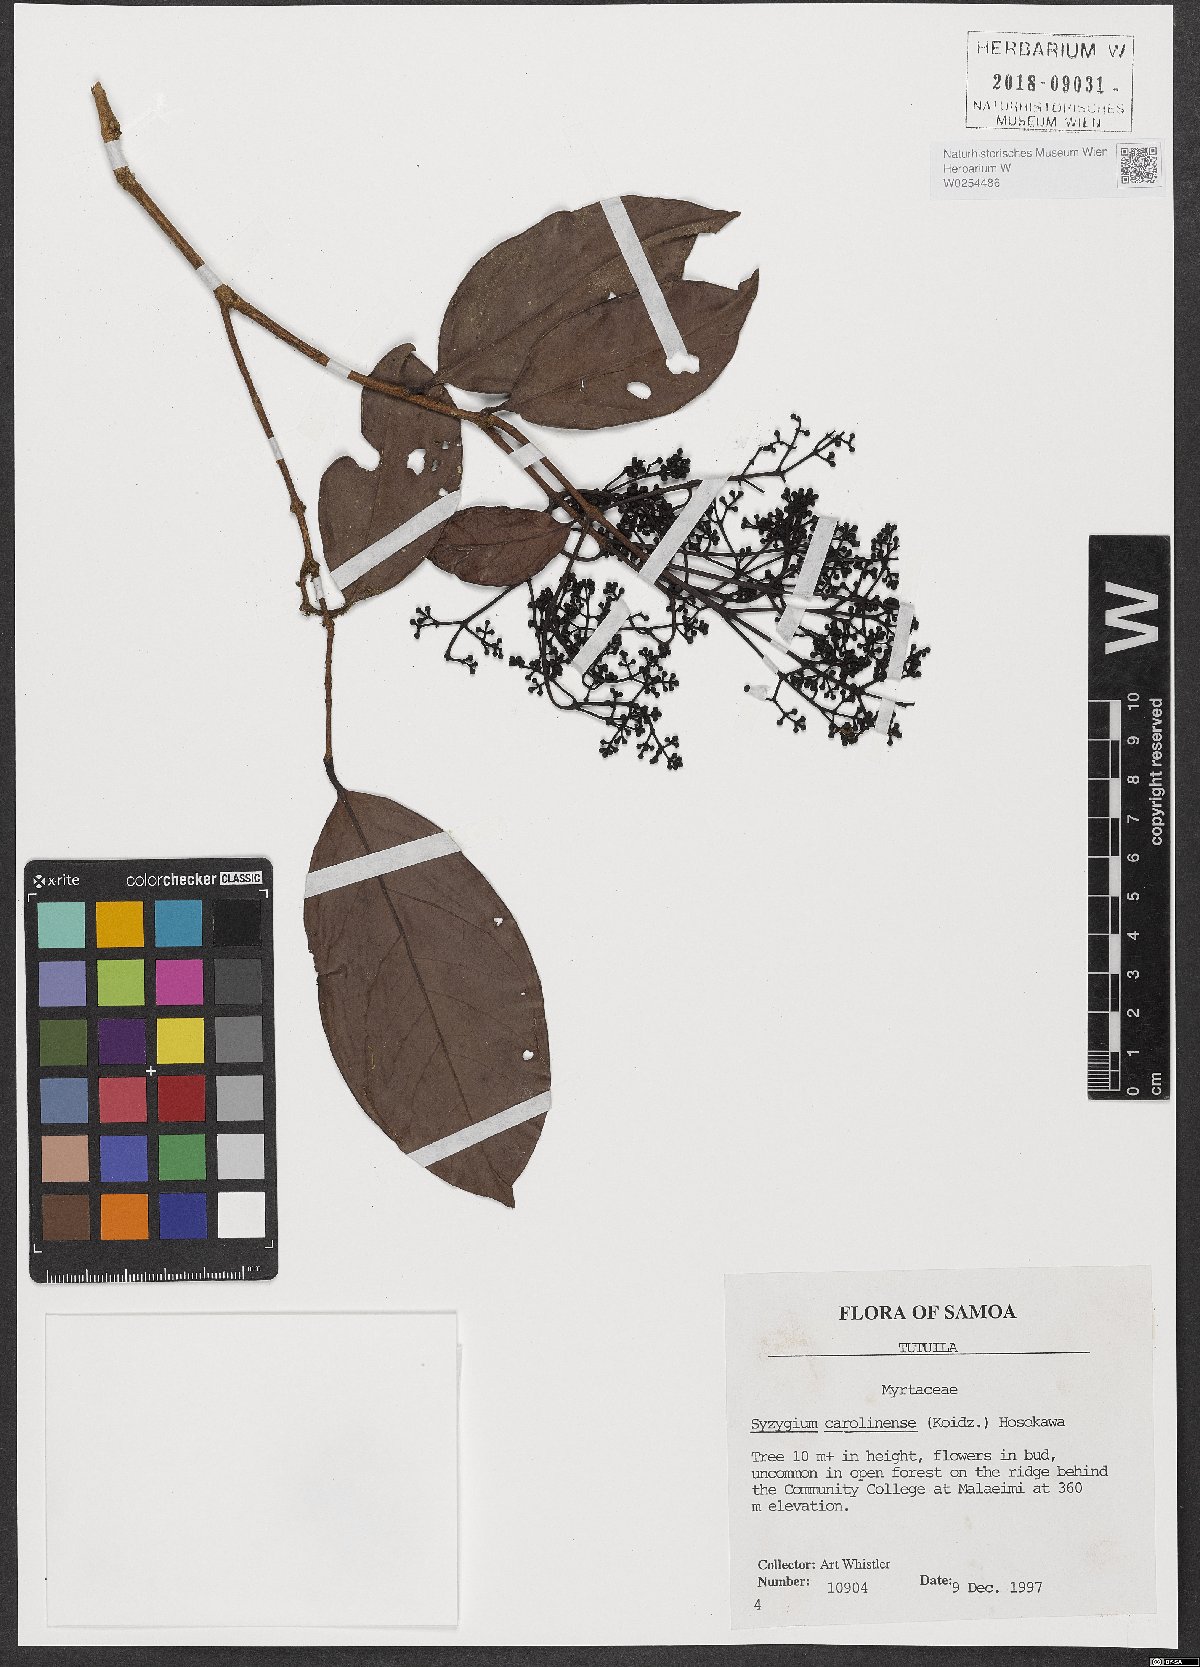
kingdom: Plantae
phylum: Tracheophyta
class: Magnoliopsida
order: Myrtales
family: Myrtaceae
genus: Syzygium
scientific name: Syzygium carolinense
